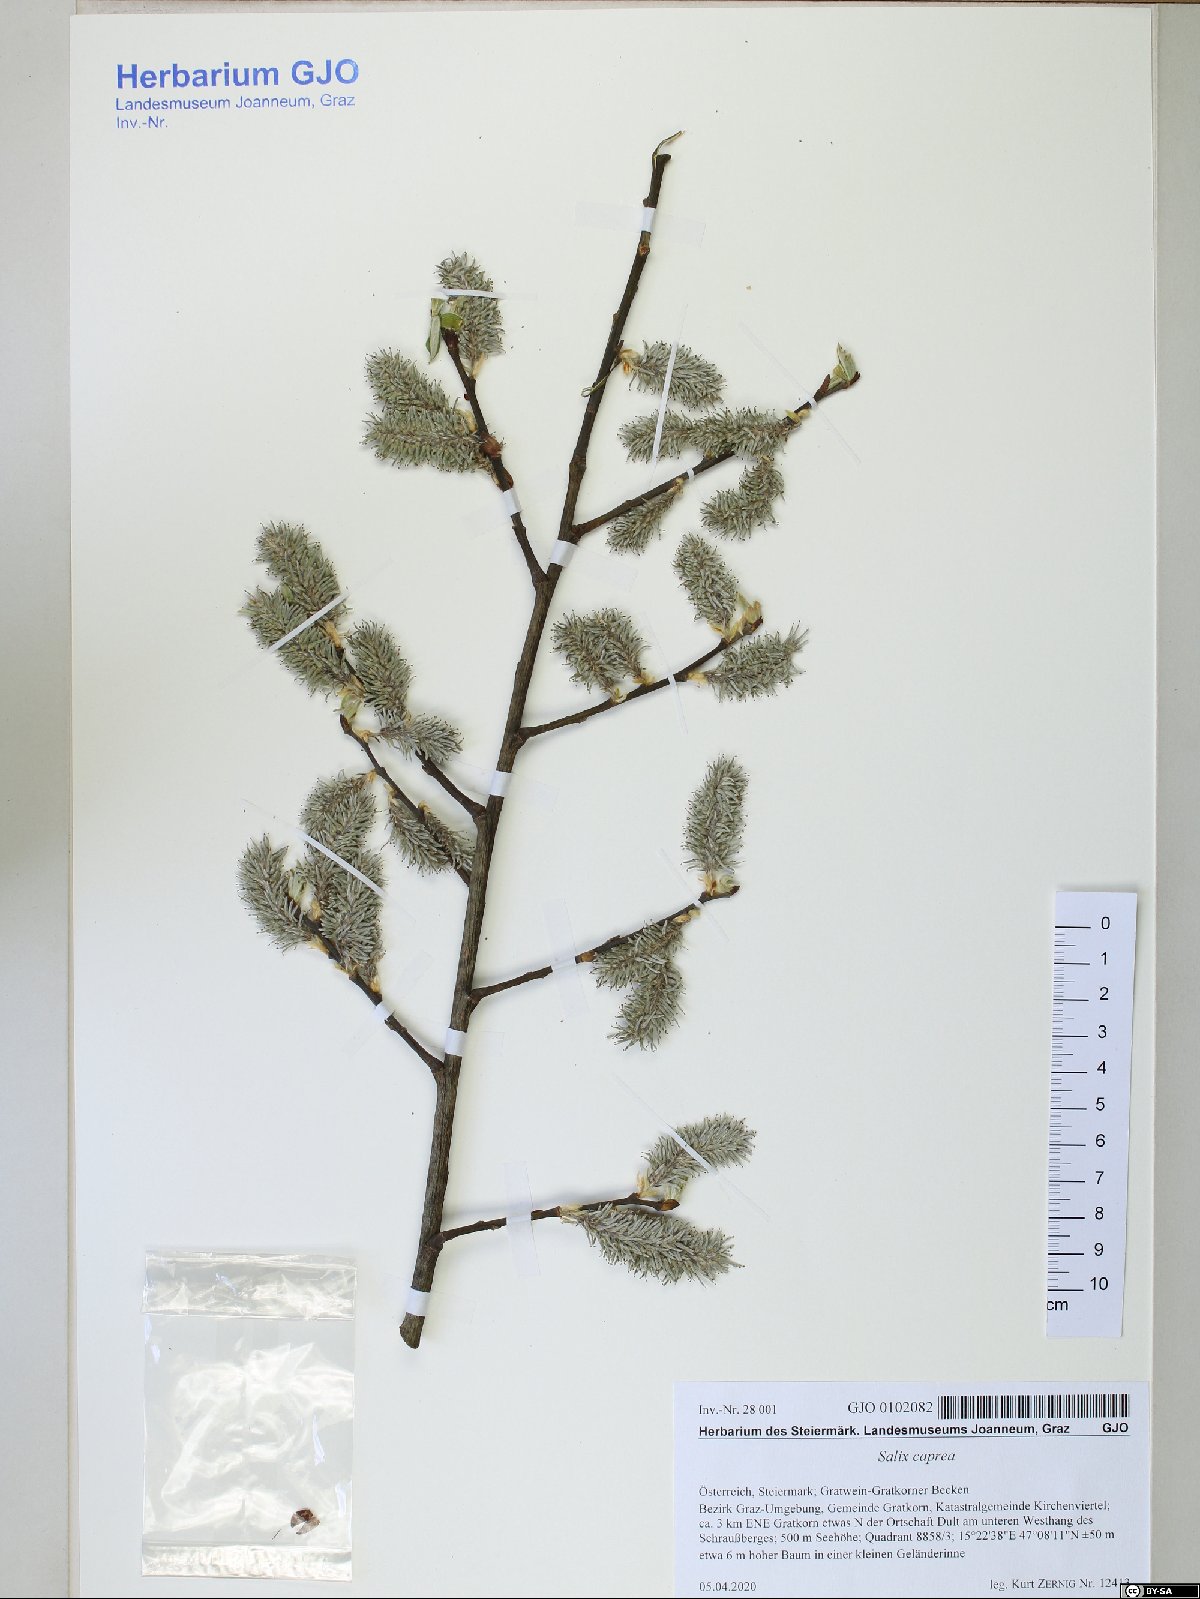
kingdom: Plantae
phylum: Tracheophyta
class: Magnoliopsida
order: Malpighiales
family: Salicaceae
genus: Salix
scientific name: Salix caprea
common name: Goat willow
